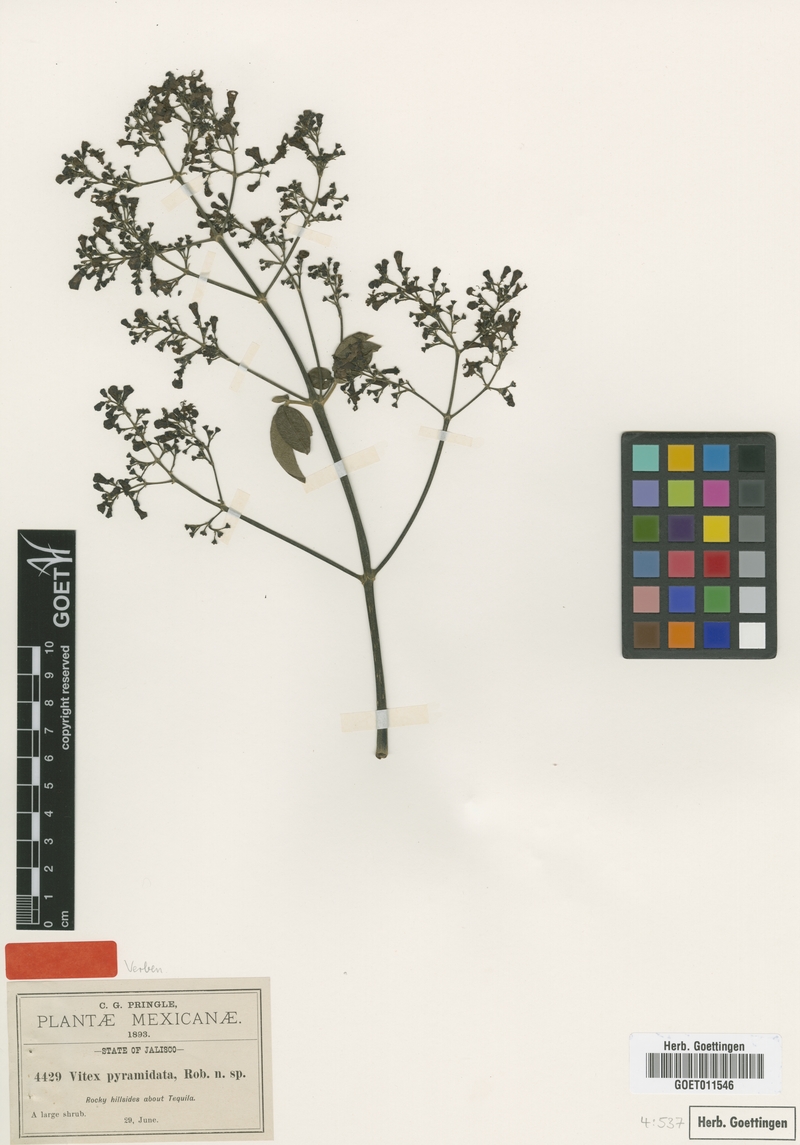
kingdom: Plantae
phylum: Tracheophyta
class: Magnoliopsida
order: Lamiales
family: Lamiaceae
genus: Vitex
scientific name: Vitex pyramidata
